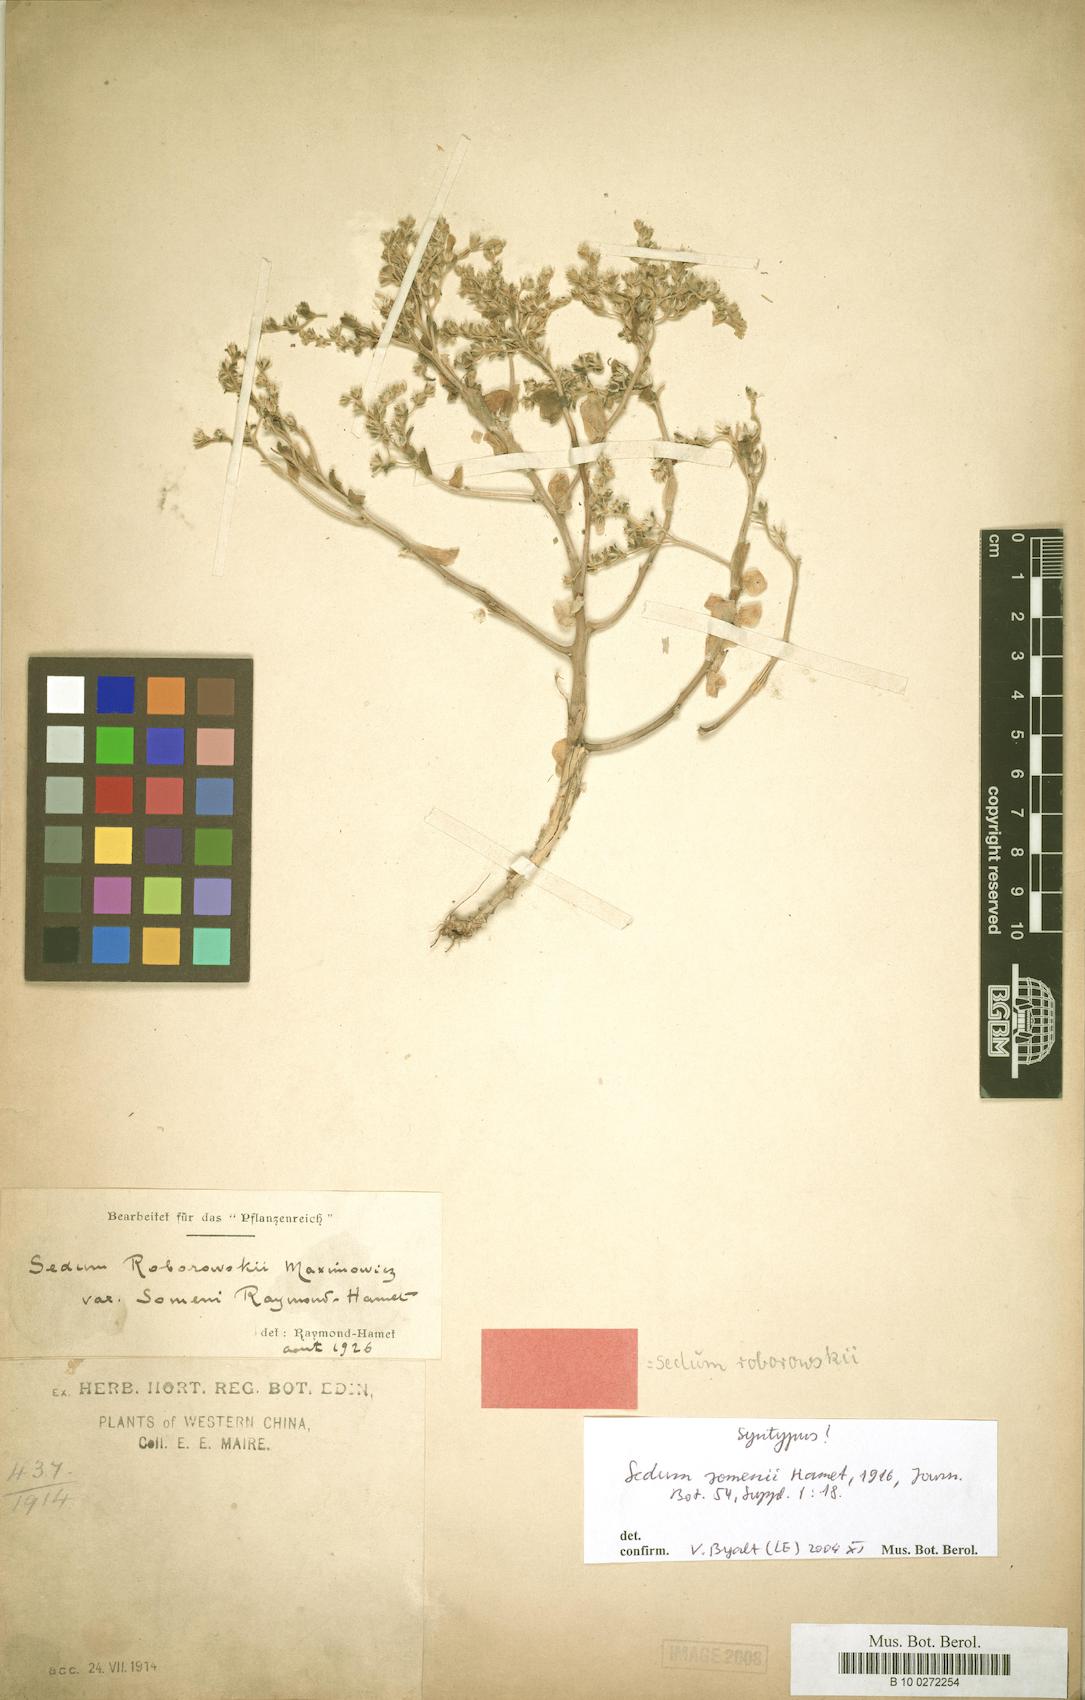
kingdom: Plantae
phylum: Tracheophyta
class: Magnoliopsida
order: Saxifragales
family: Crassulaceae
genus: Sedum
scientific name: Sedum roborowskii
